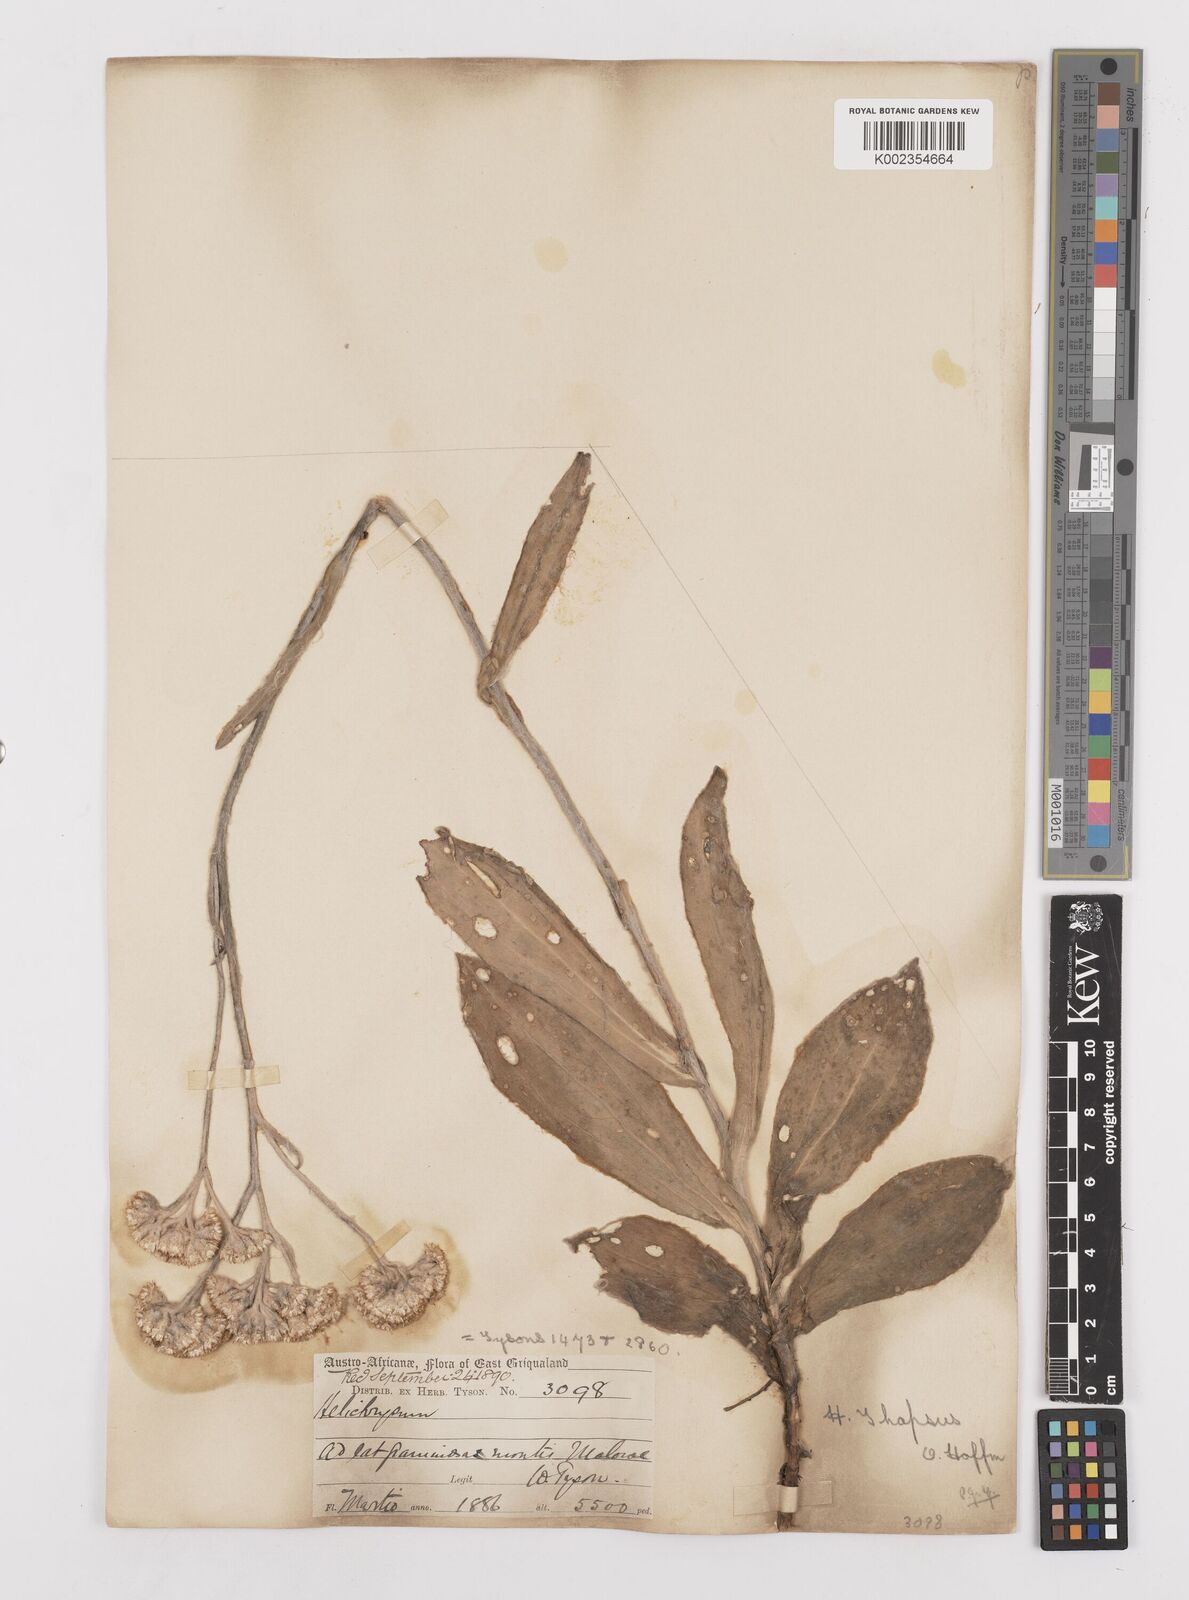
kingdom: Plantae
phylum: Tracheophyta
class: Magnoliopsida
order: Asterales
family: Asteraceae
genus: Helichrysum
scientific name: Helichrysum thapsus
